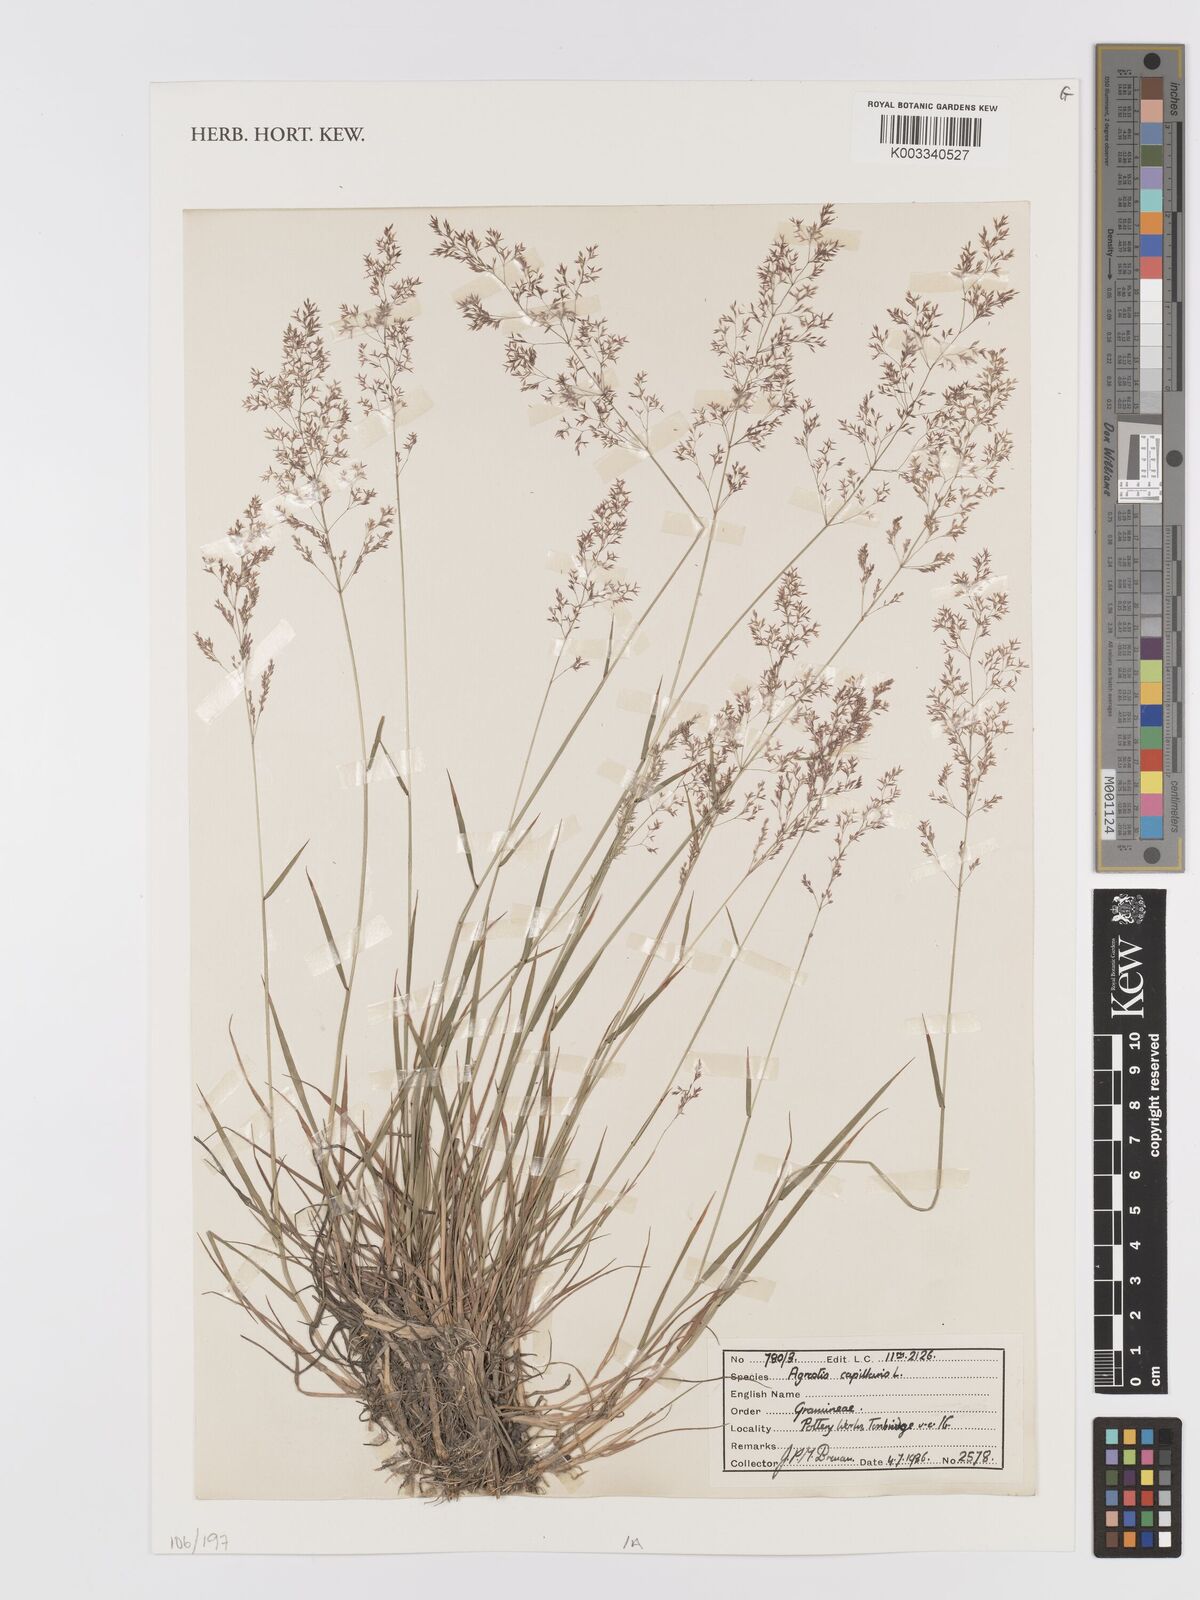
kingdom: Plantae
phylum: Tracheophyta
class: Liliopsida
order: Poales
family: Poaceae
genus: Agrostis
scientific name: Agrostis capillaris
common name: Colonial bentgrass
